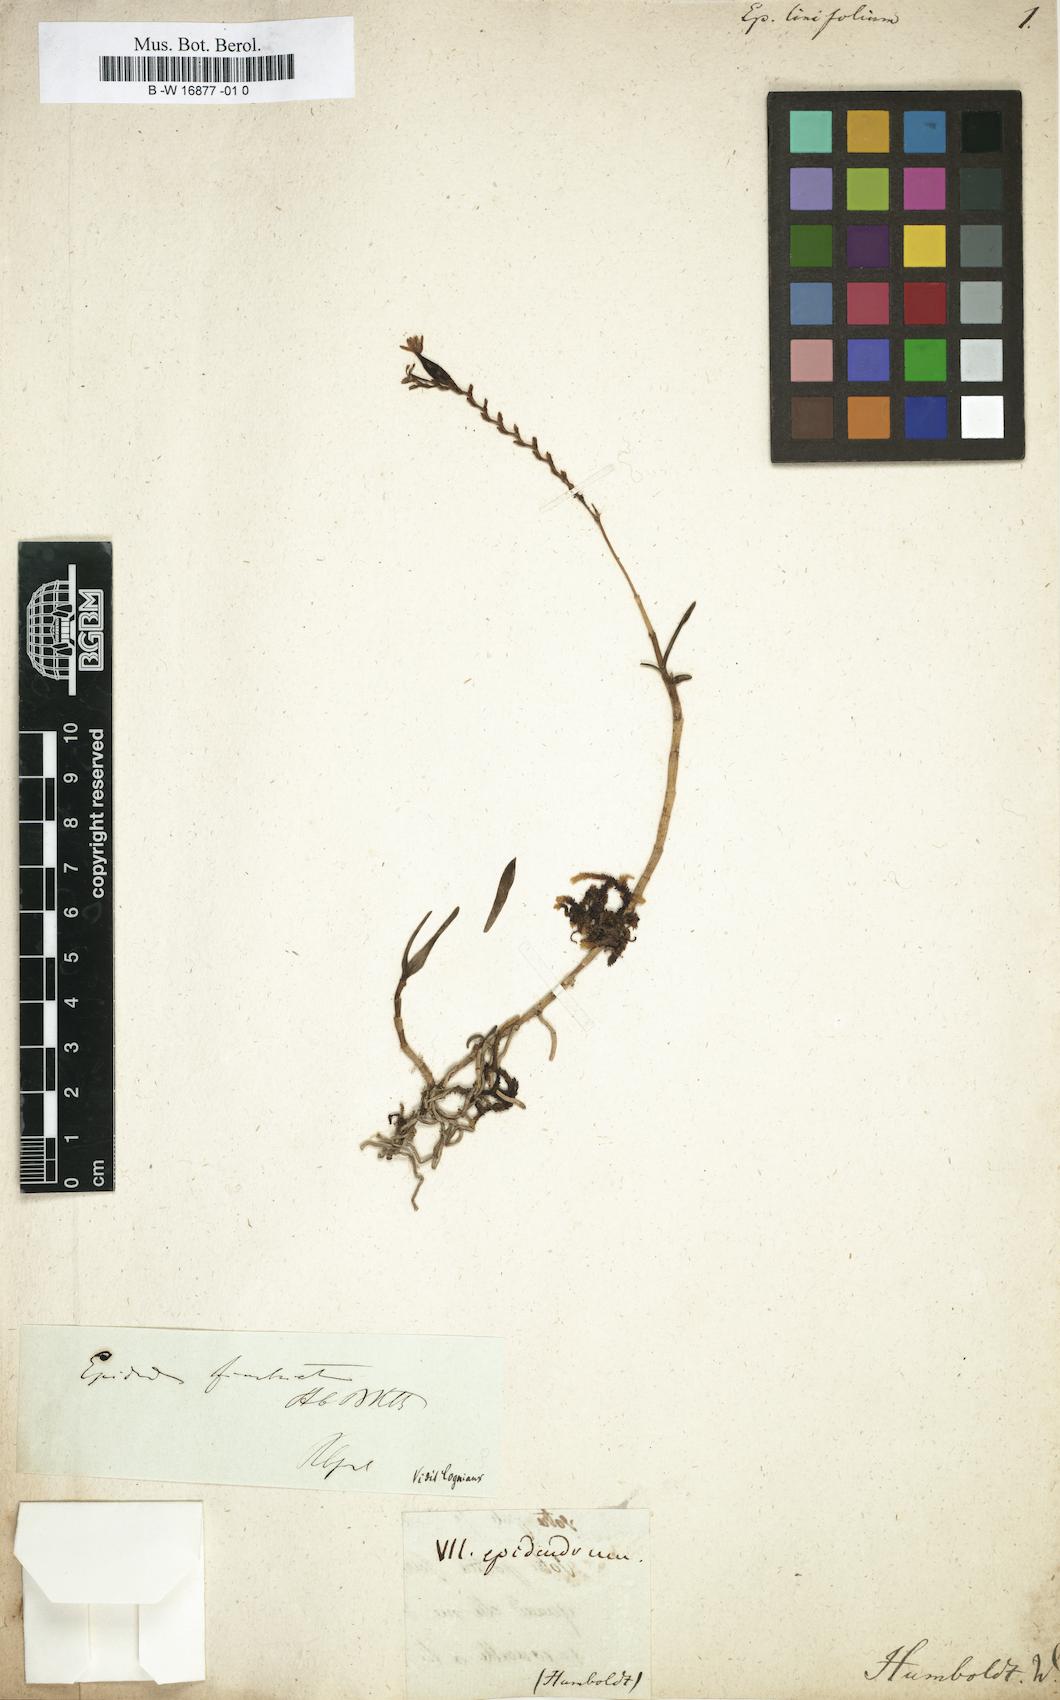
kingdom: Plantae
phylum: Tracheophyta
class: Liliopsida
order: Asparagales
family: Orchidaceae
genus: Epidendrum
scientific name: Epidendrum muscicola
